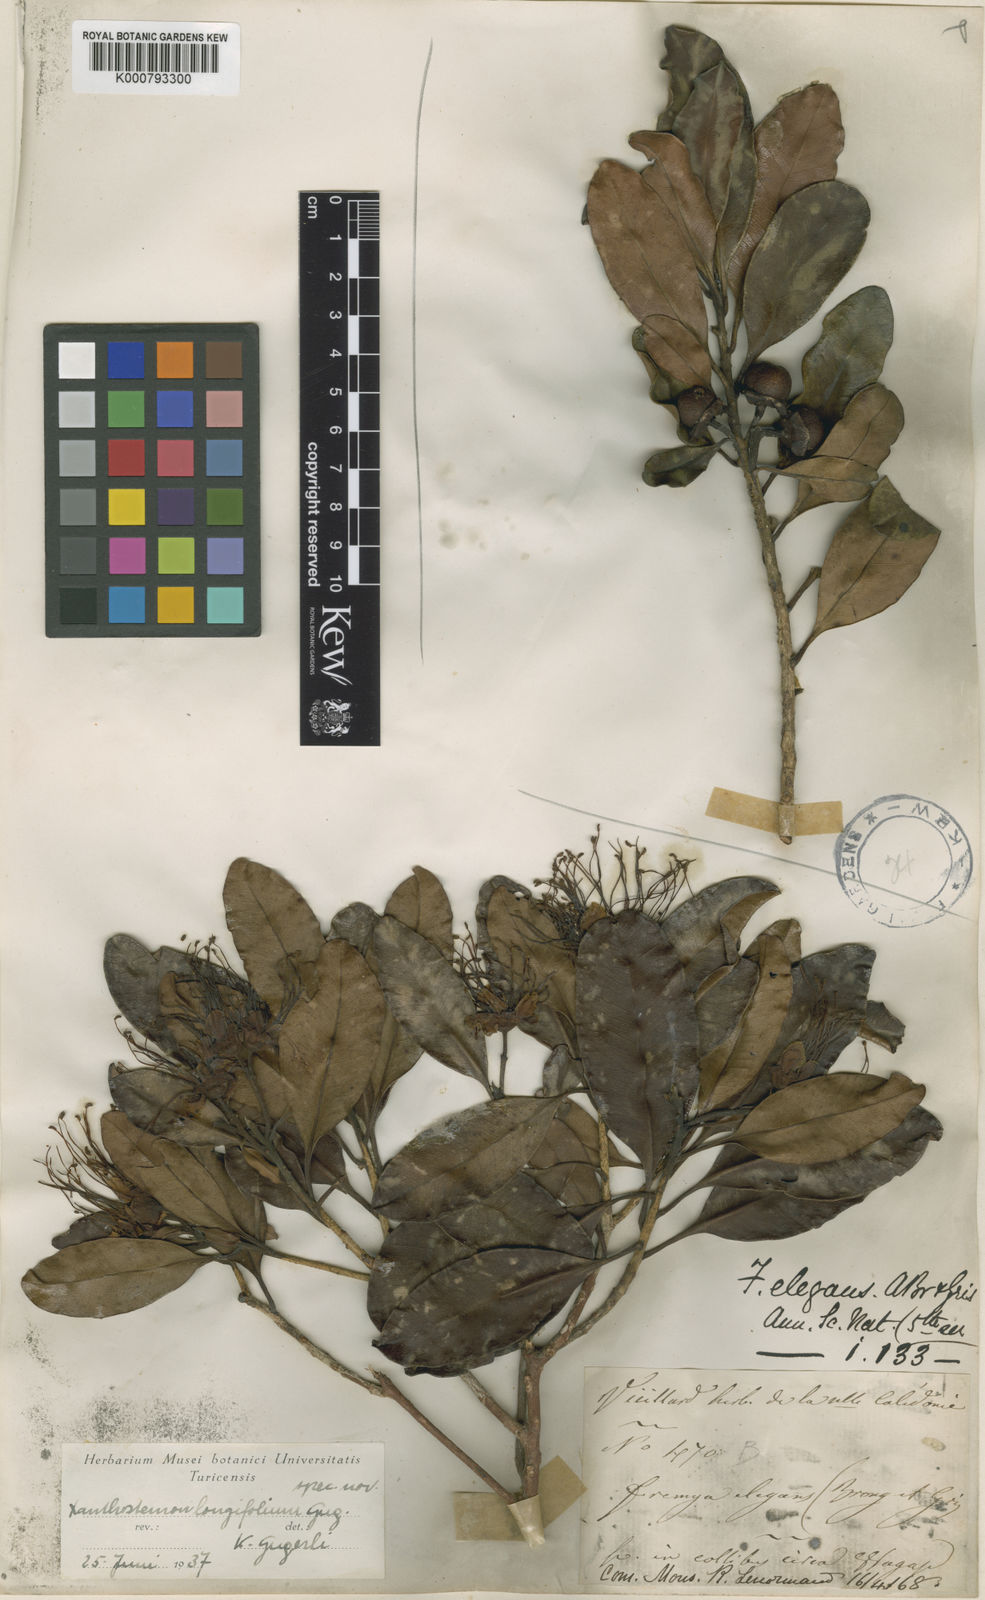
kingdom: Plantae
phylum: Tracheophyta
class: Magnoliopsida
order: Myrtales
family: Myrtaceae
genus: Xanthostemon
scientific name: Xanthostemon multiflorus
